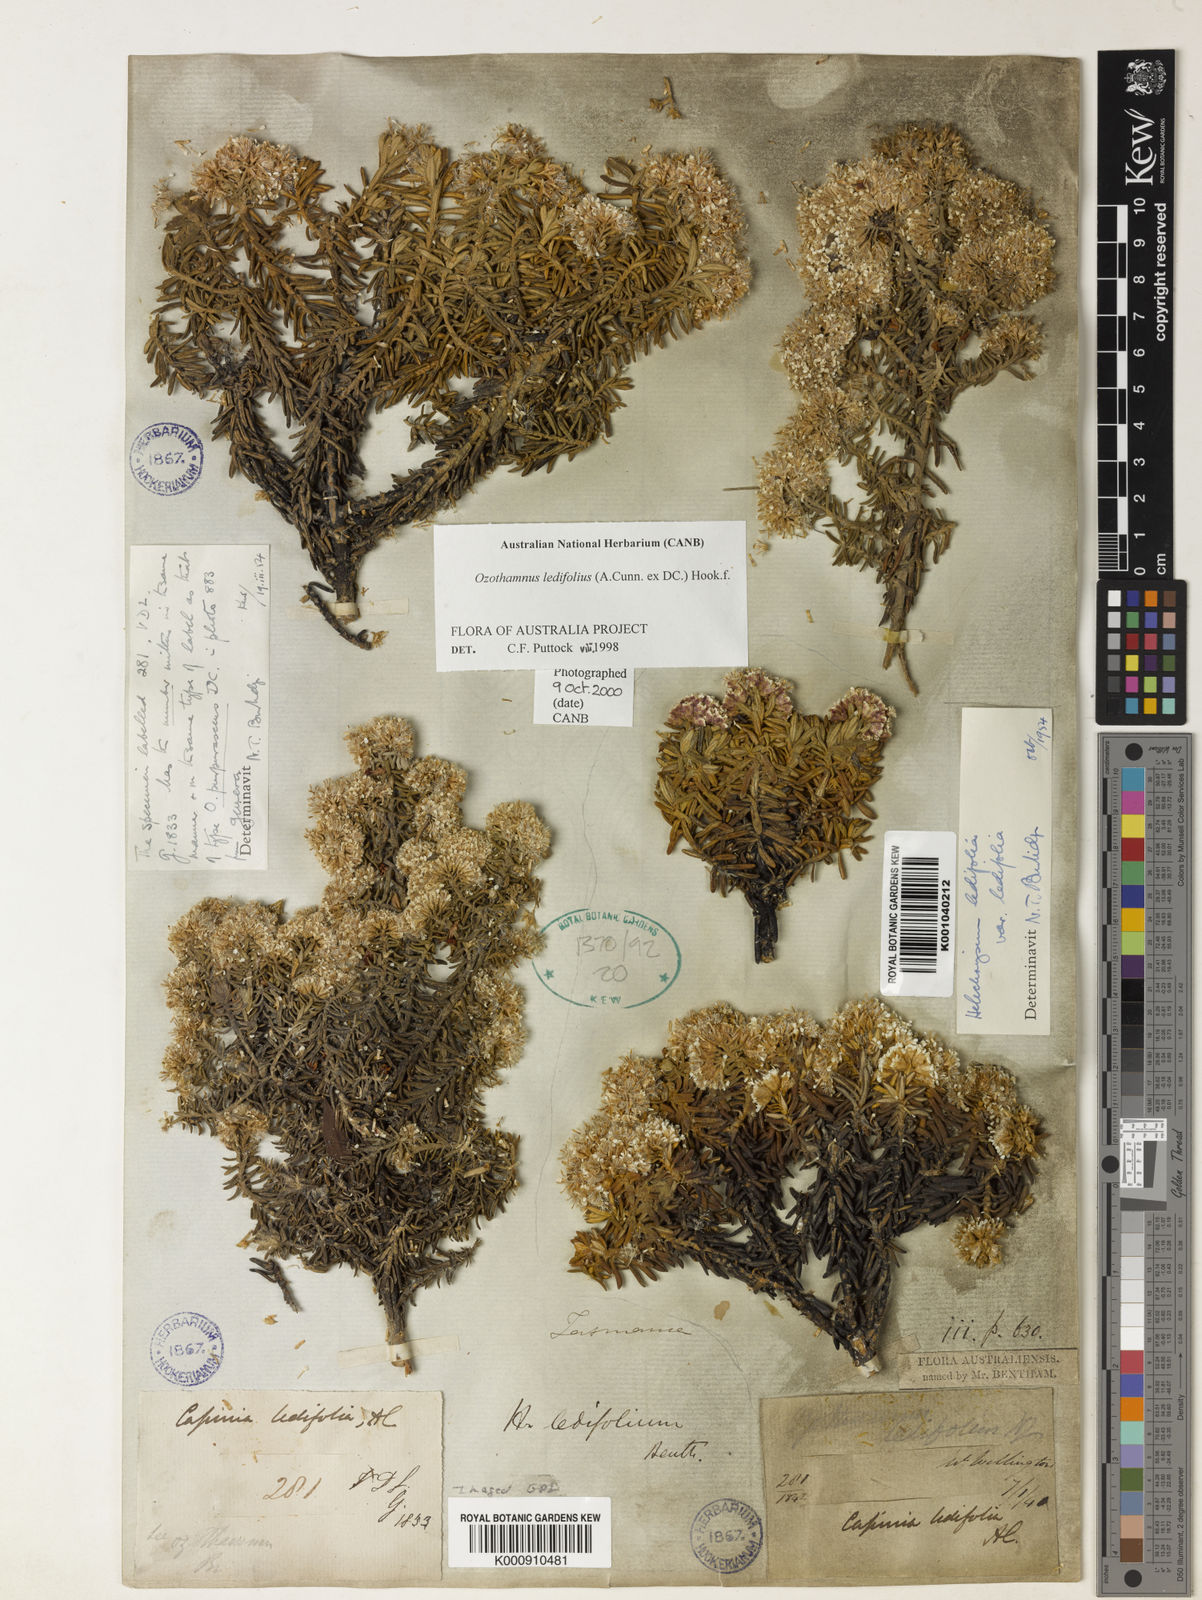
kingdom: Plantae
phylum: Tracheophyta
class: Magnoliopsida
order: Asterales
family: Asteraceae
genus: Ozothamnus
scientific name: Ozothamnus ledifolius
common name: Kerosene-weed
